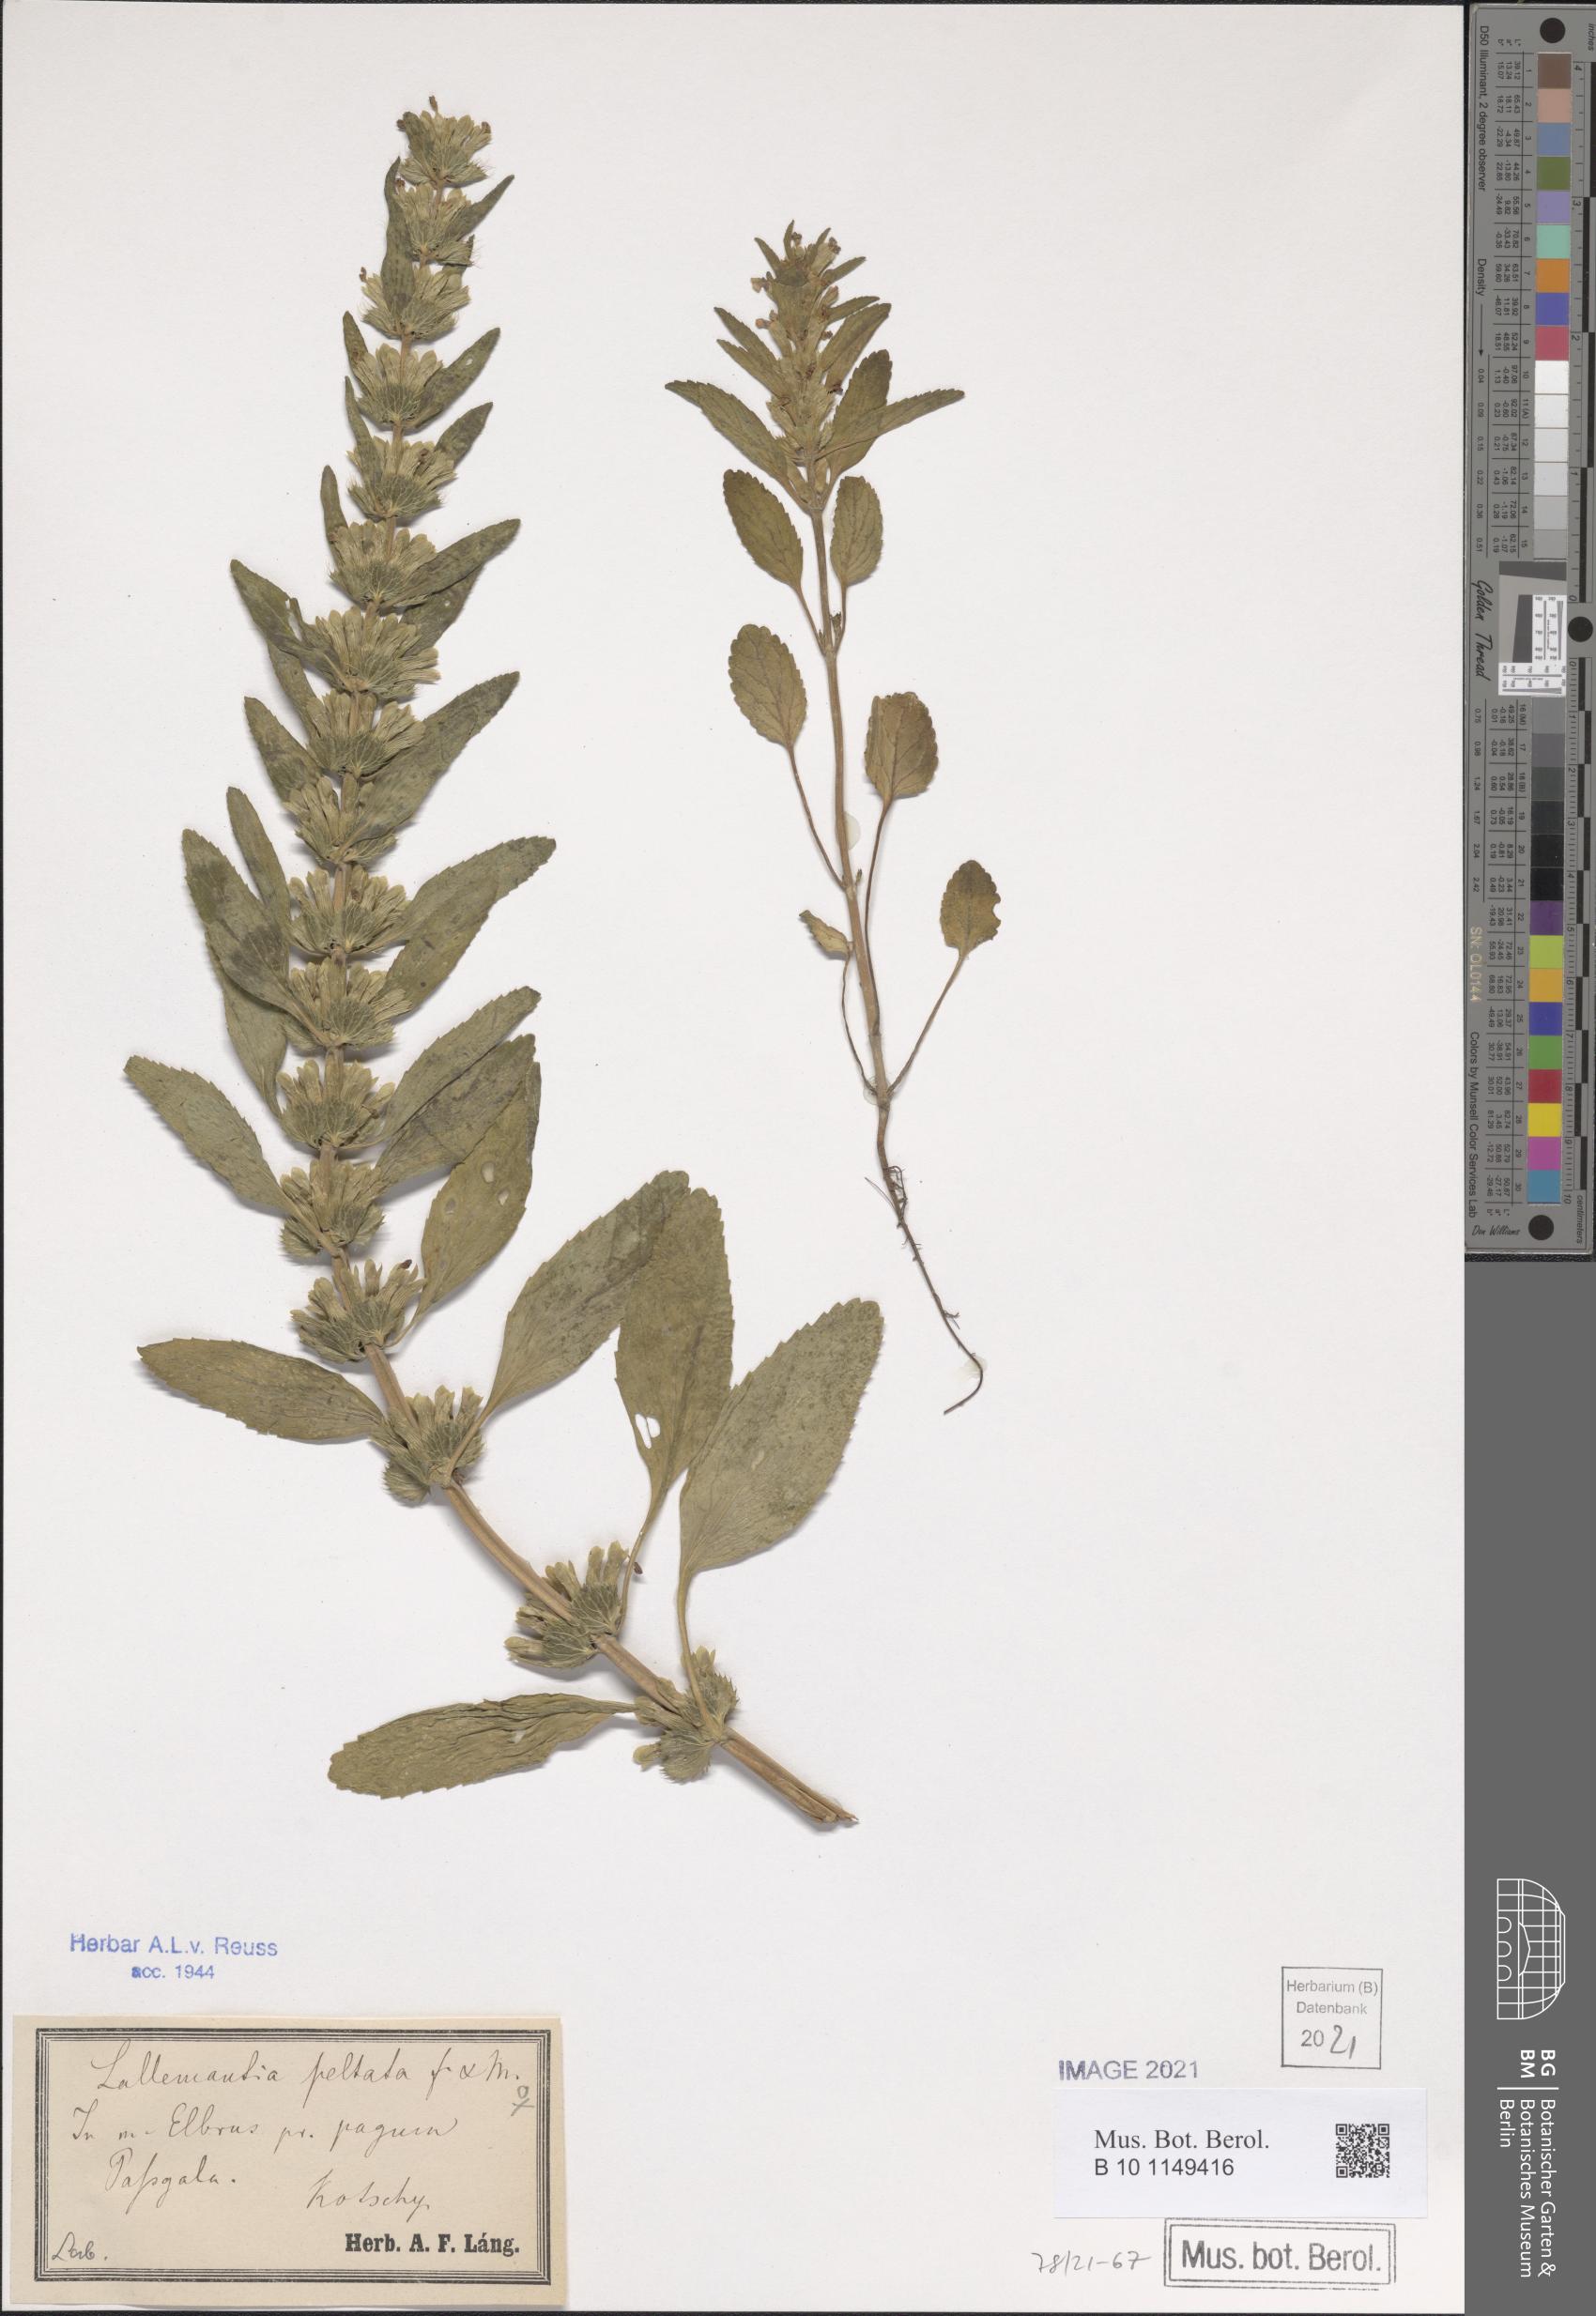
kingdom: Plantae
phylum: Tracheophyta
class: Magnoliopsida
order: Lamiales
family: Lamiaceae
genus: Lallemantia
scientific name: Lallemantia peltata
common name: Lion's heart
